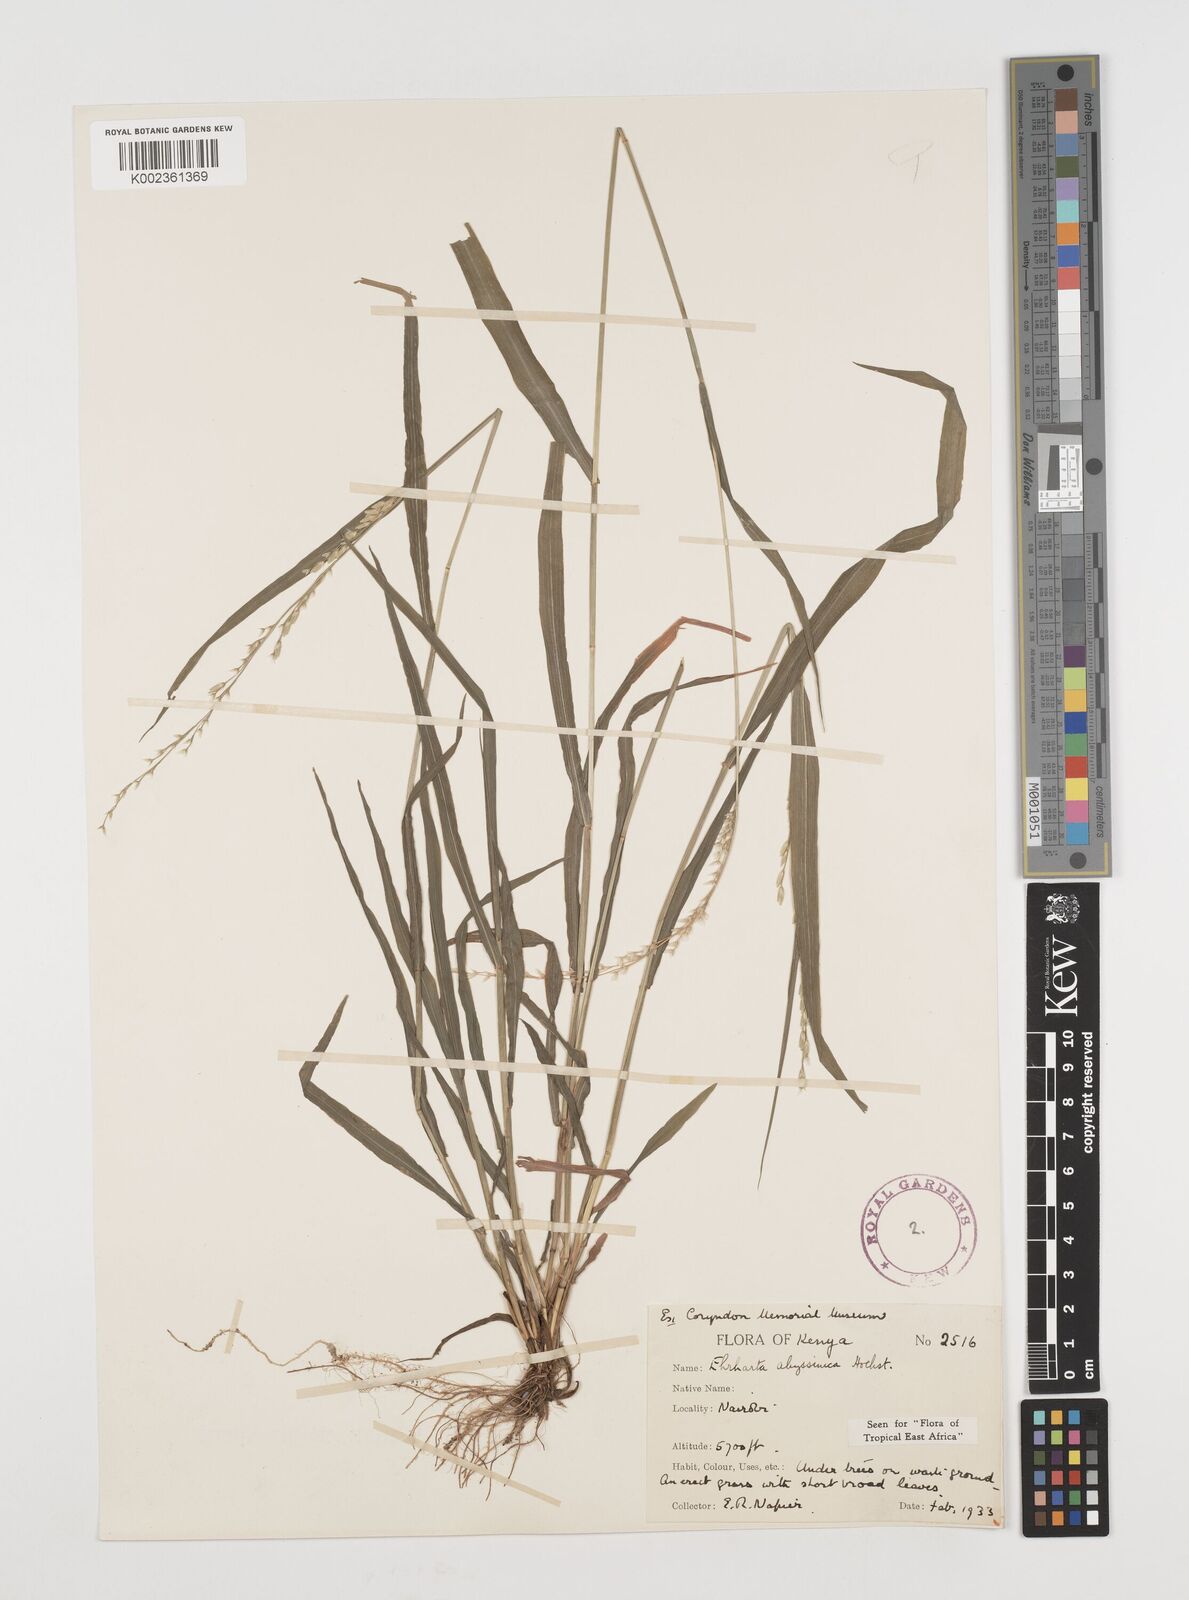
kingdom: Plantae
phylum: Tracheophyta
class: Liliopsida
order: Poales
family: Poaceae
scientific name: Poaceae
